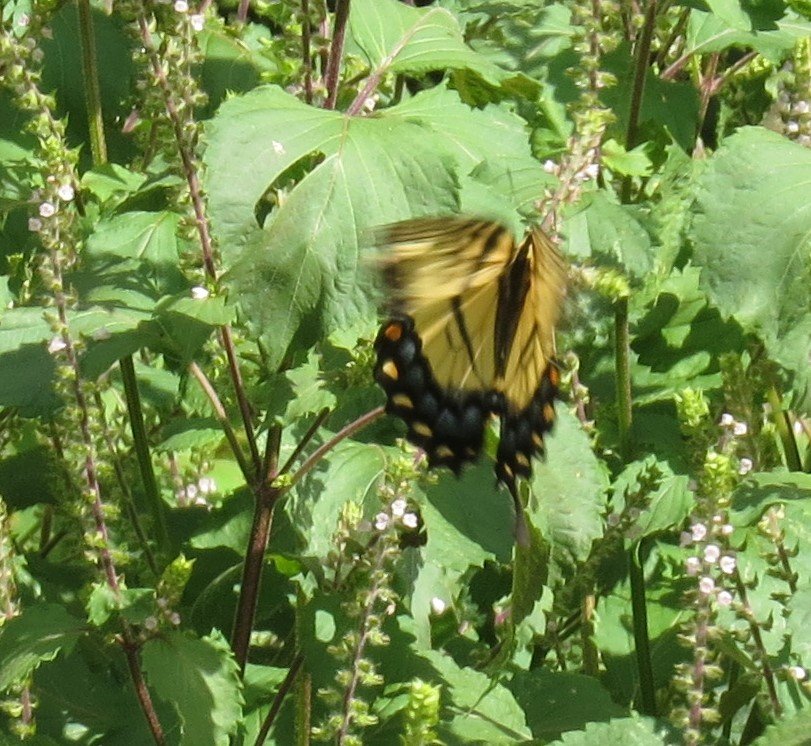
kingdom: Animalia
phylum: Arthropoda
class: Insecta
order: Lepidoptera
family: Papilionidae
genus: Pterourus
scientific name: Pterourus glaucus
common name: Eastern Tiger Swallowtail
